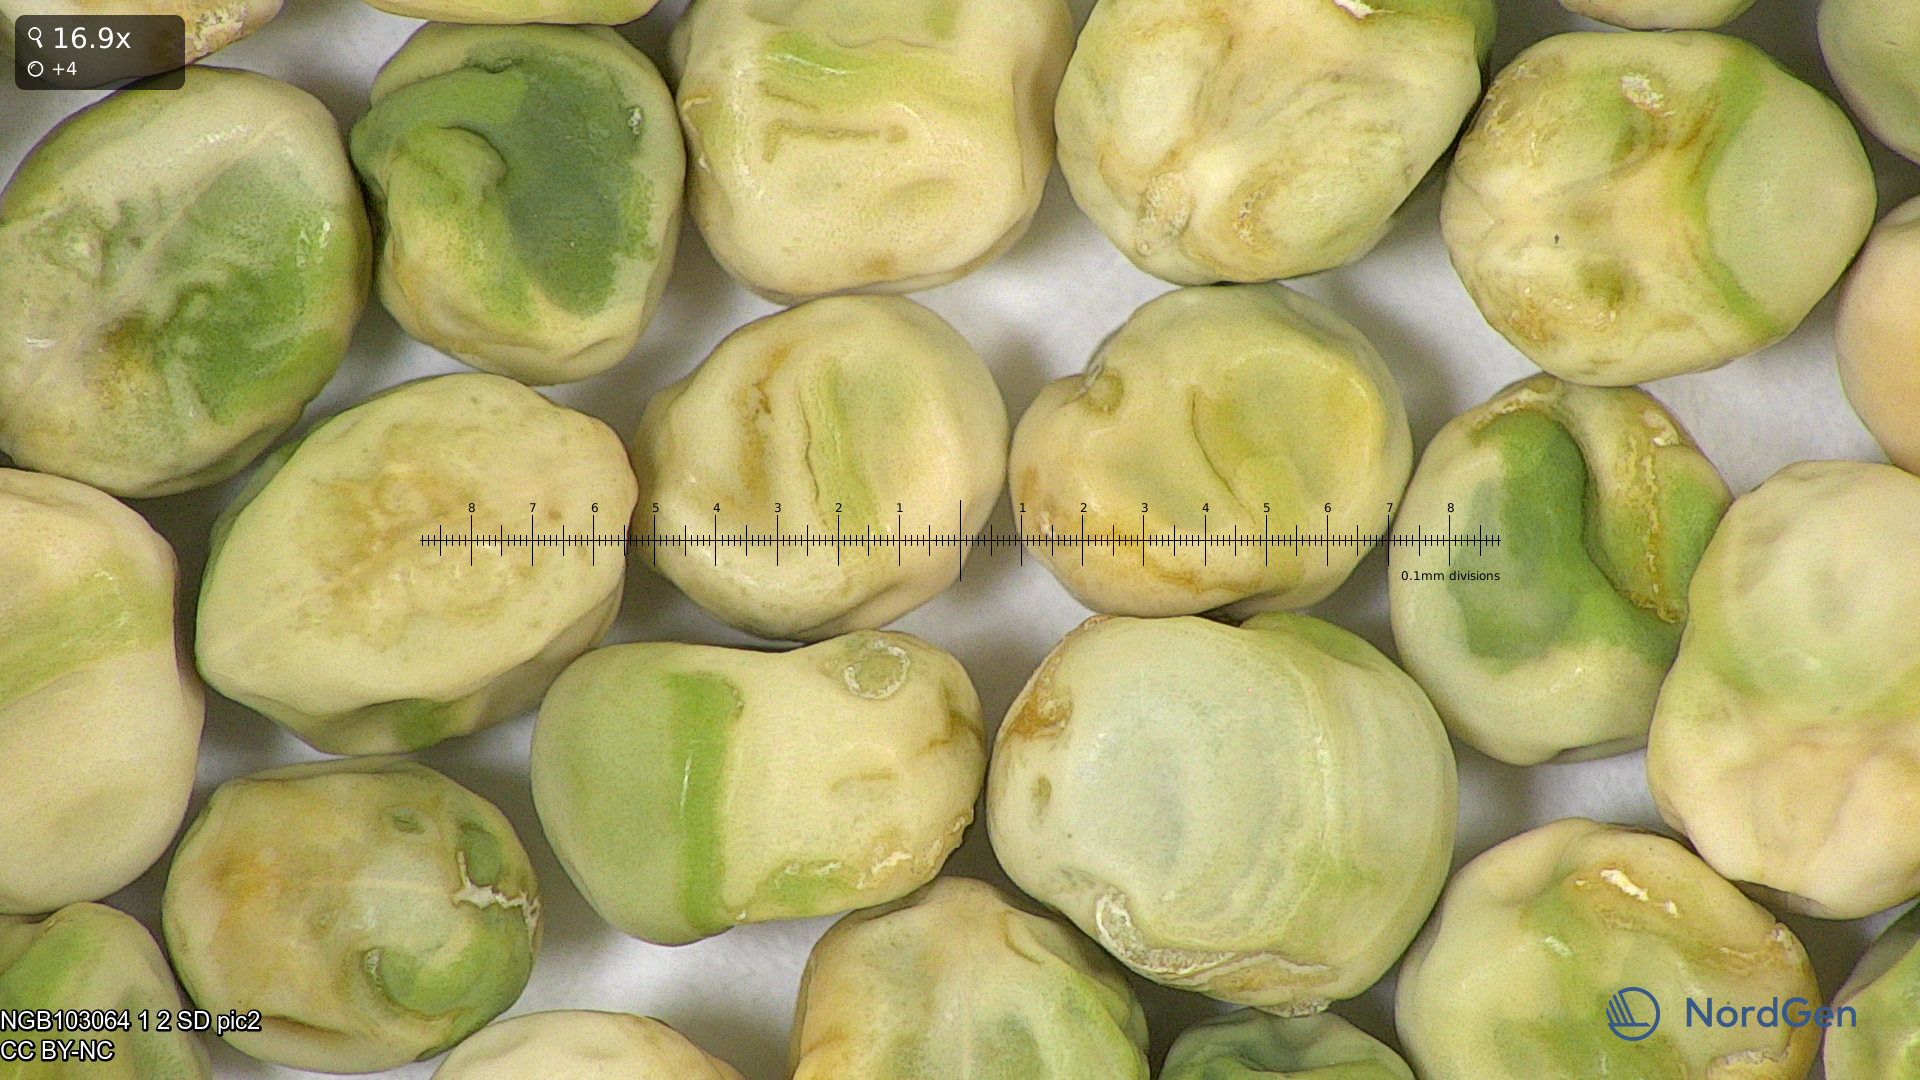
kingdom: Plantae
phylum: Tracheophyta
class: Magnoliopsida
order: Fabales
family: Fabaceae
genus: Lathyrus
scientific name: Lathyrus oleraceus
